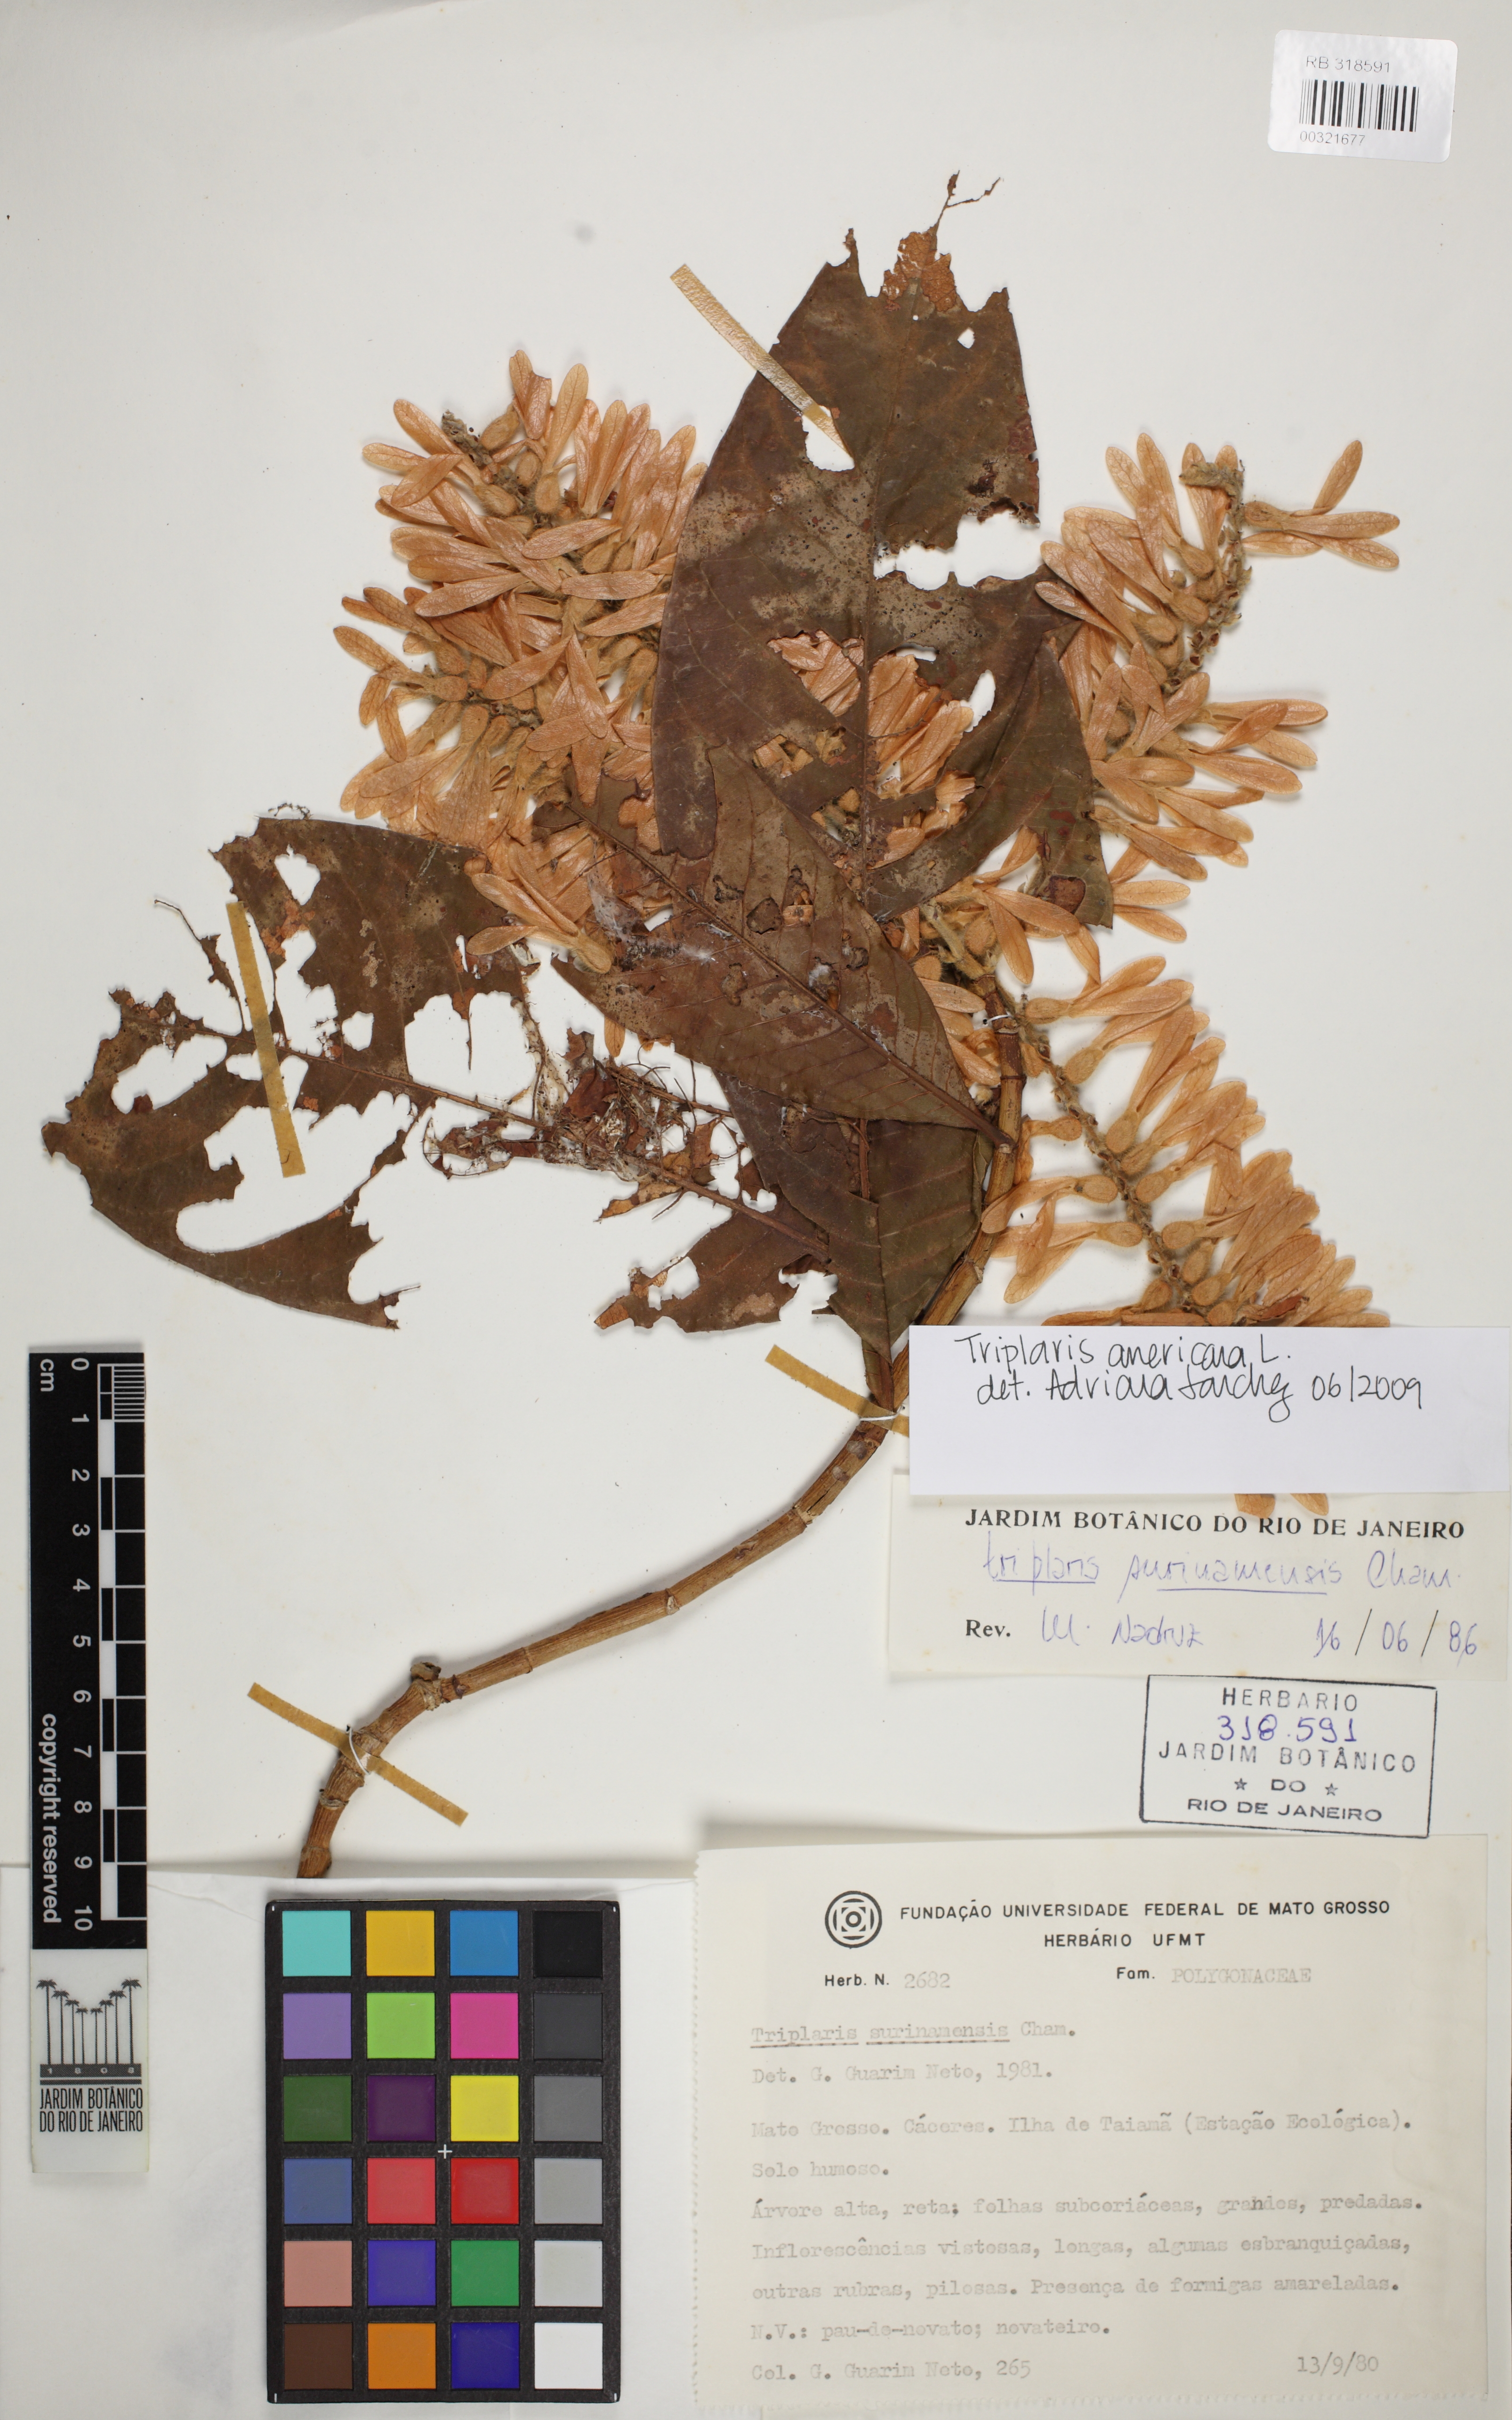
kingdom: Plantae
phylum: Tracheophyta
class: Magnoliopsida
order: Caryophyllales
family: Polygonaceae
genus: Triplaris
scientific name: Triplaris americana
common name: Ant-tree
